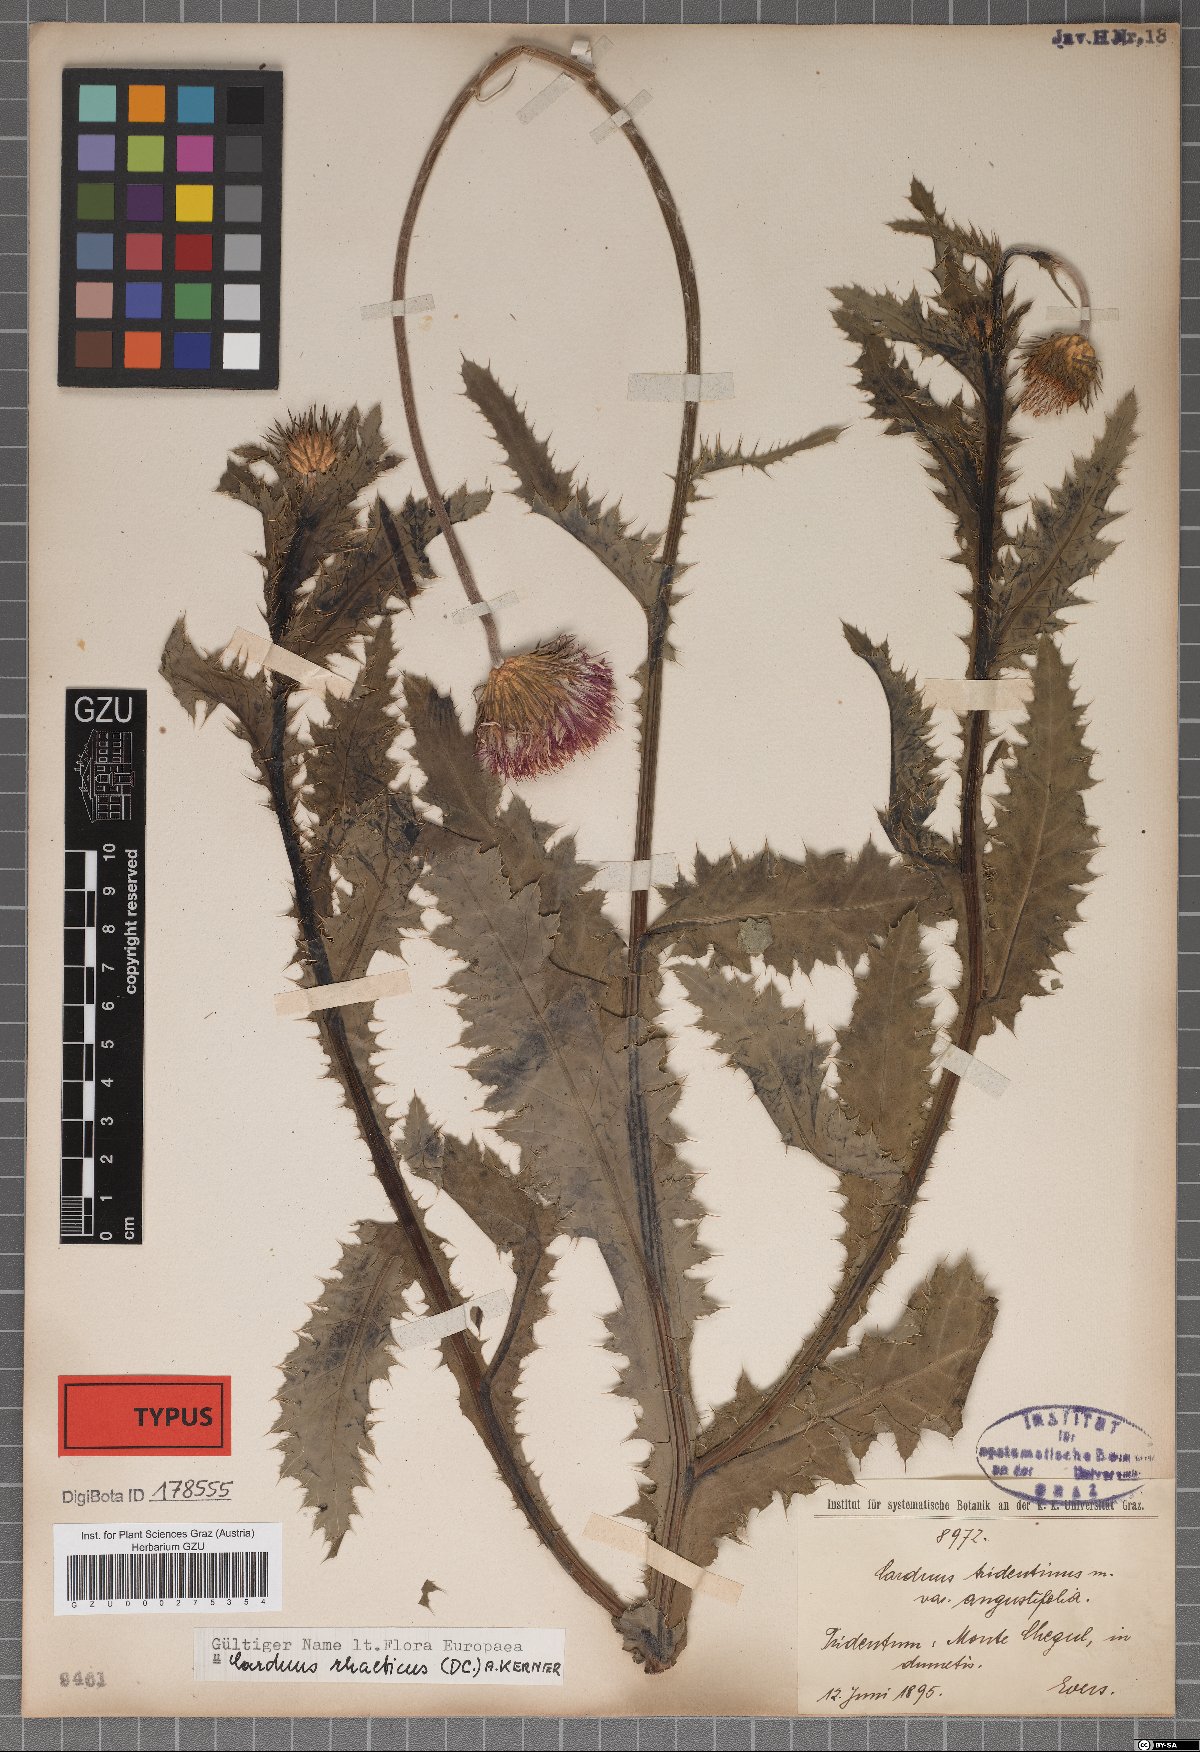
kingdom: Plantae
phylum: Tracheophyta
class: Magnoliopsida
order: Asterales
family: Asteraceae
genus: Carduus
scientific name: Carduus defloratus
